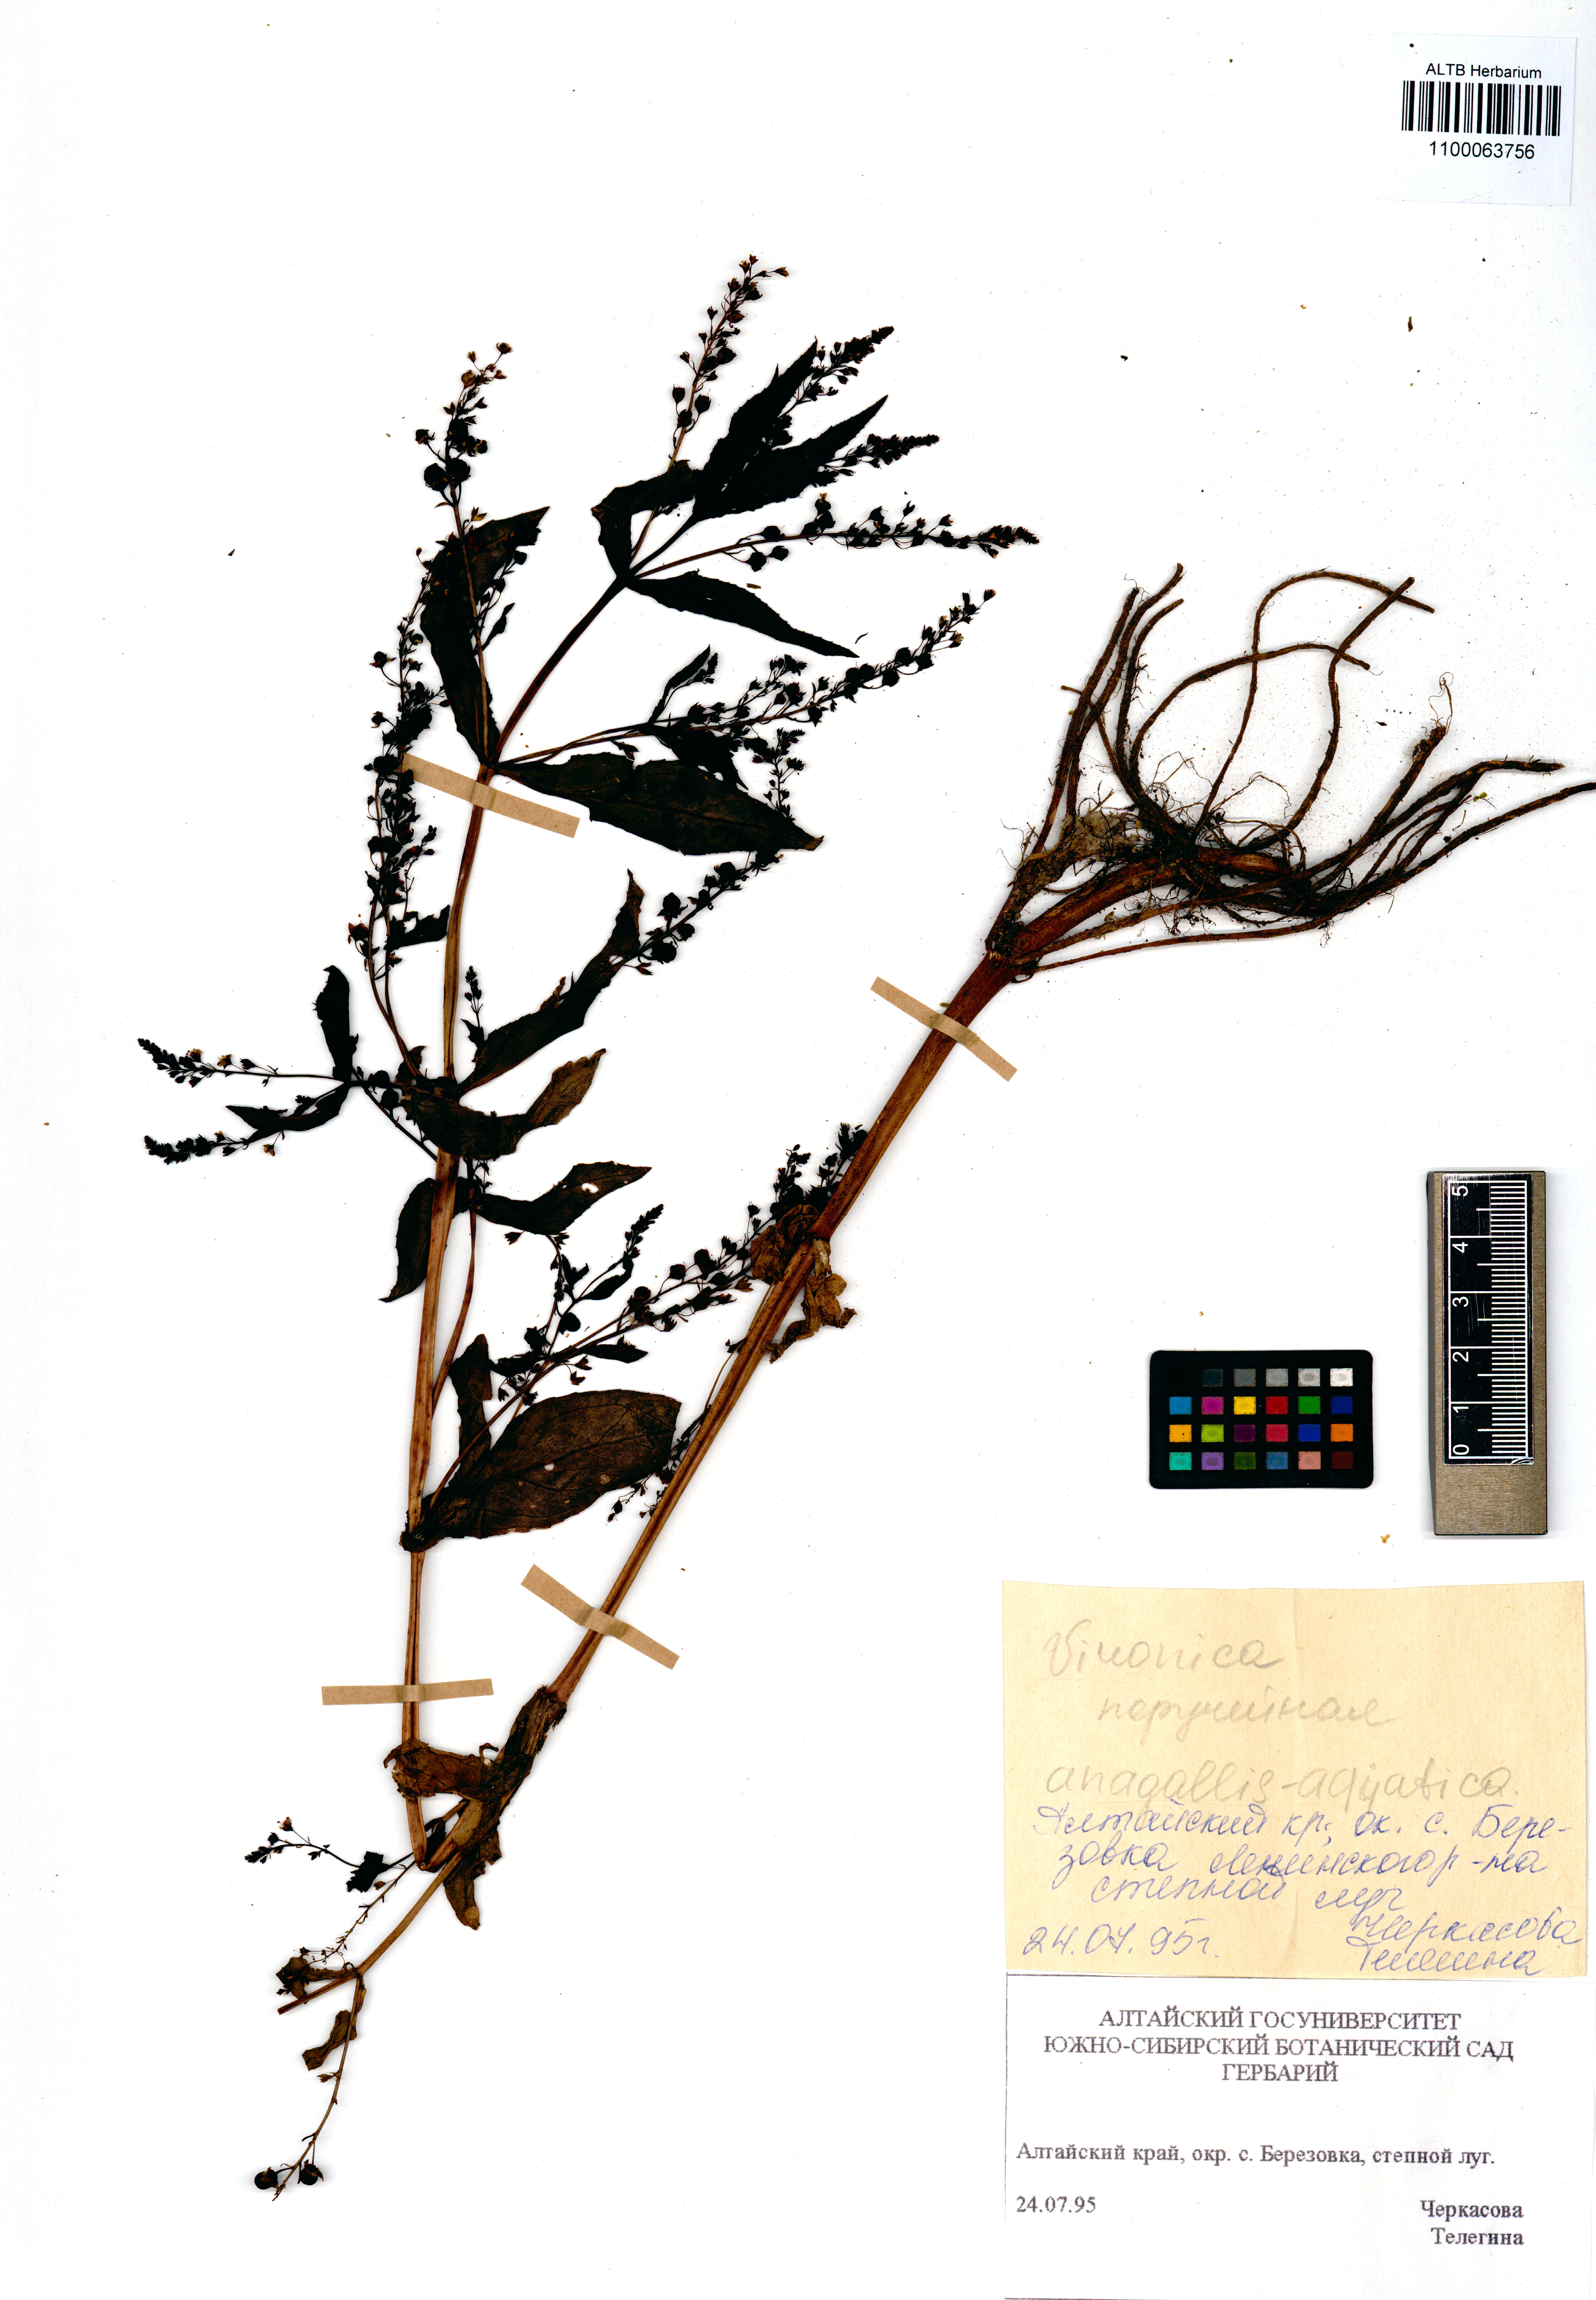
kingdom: Plantae
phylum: Tracheophyta
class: Magnoliopsida
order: Lamiales
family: Plantaginaceae
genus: Veronica
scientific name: Veronica anagallis-aquatica
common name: Water speedwell
